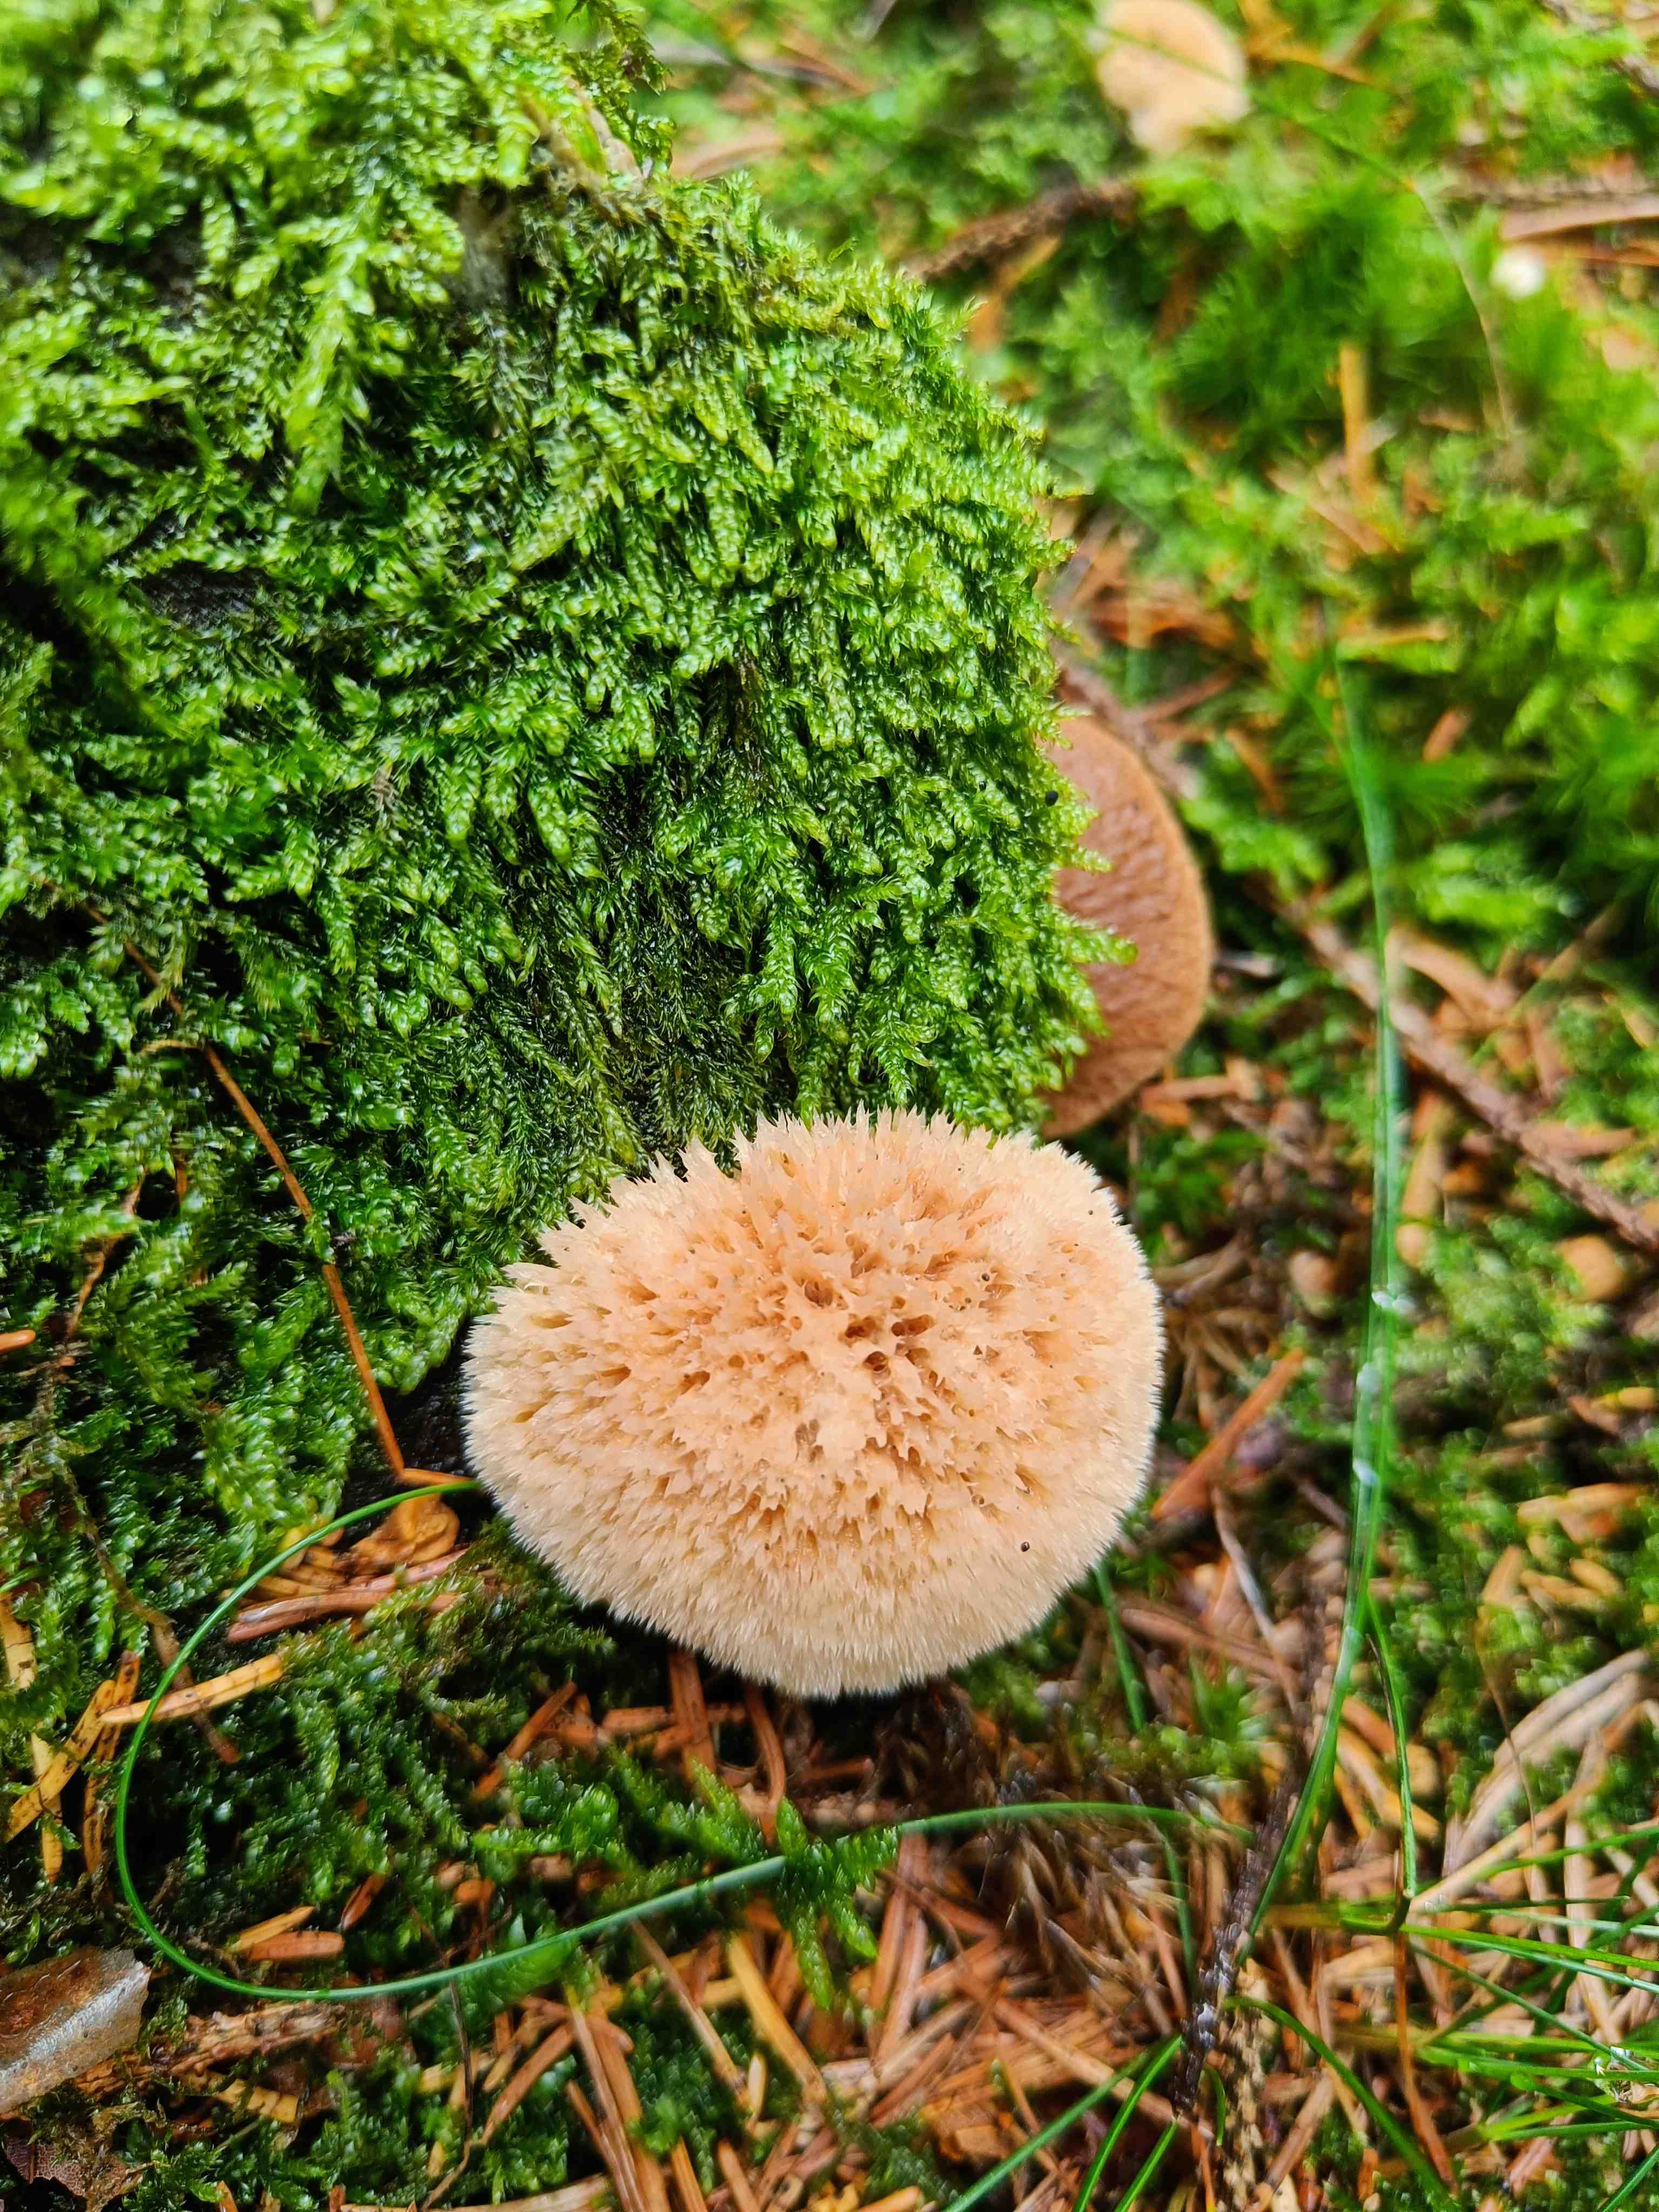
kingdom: Fungi
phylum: Basidiomycota
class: Agaricomycetes
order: Polyporales
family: Dacryobolaceae
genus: Postia
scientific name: Postia ptychogaster
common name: støvende kødporesvamp
